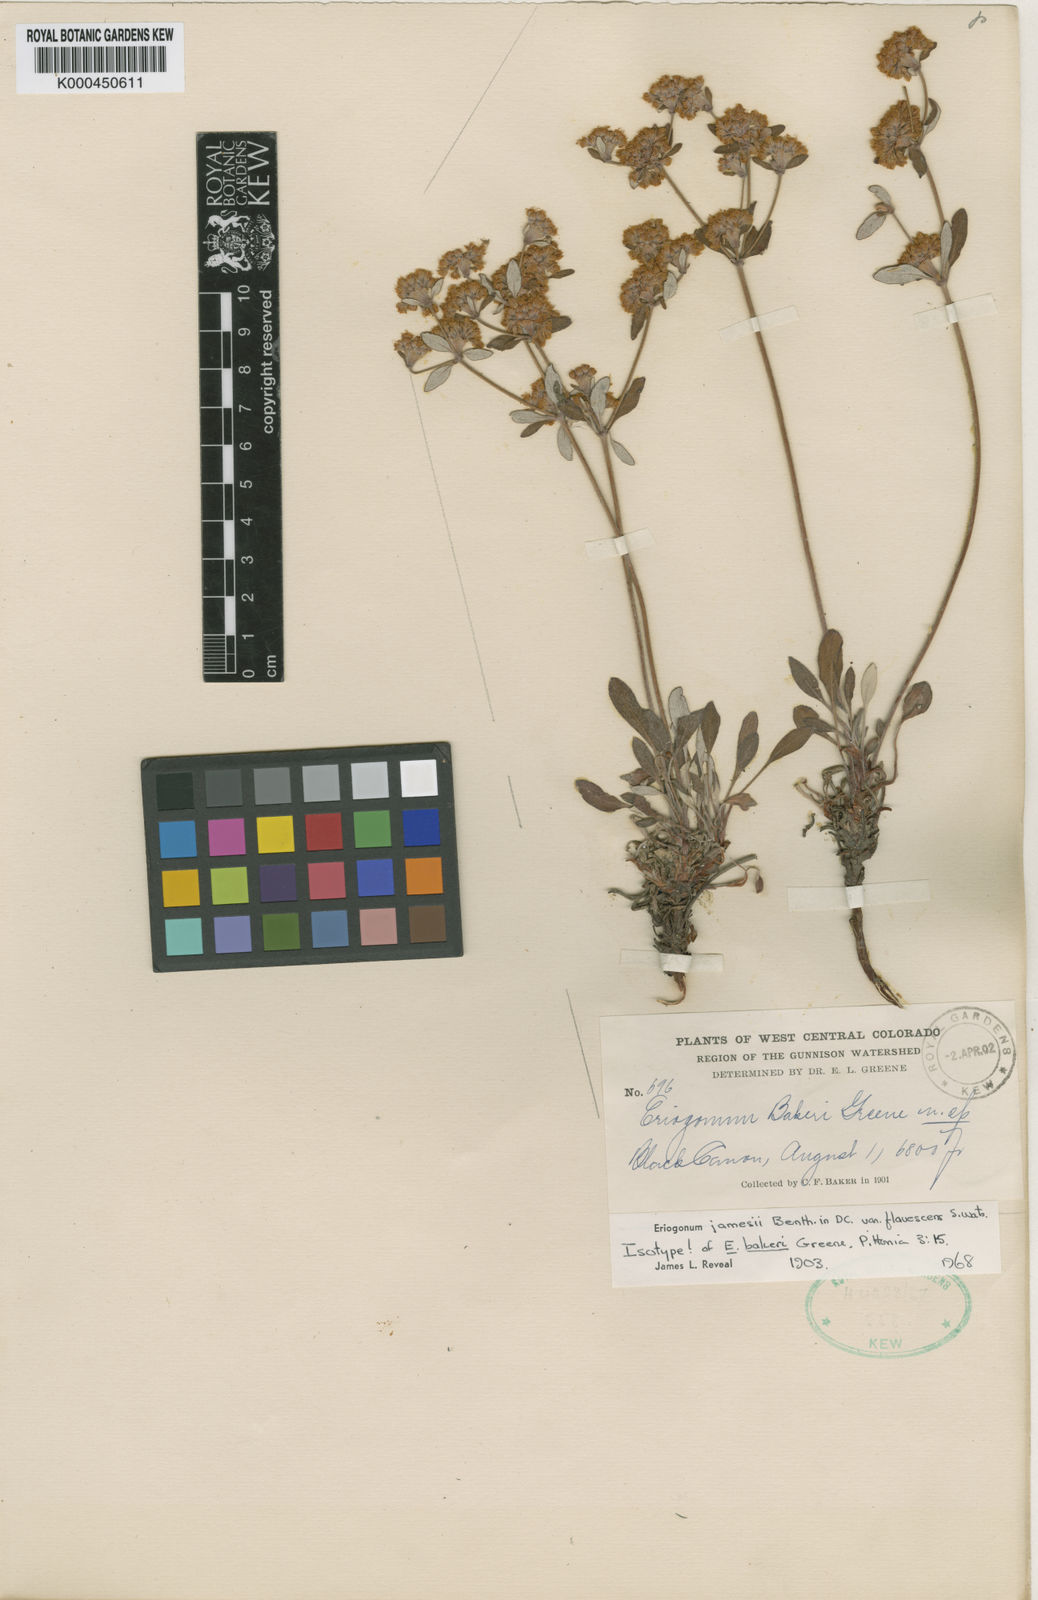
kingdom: Plantae
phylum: Tracheophyta
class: Magnoliopsida
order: Caryophyllales
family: Polygonaceae
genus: Eriogonum
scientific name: Eriogonum arcuatum
